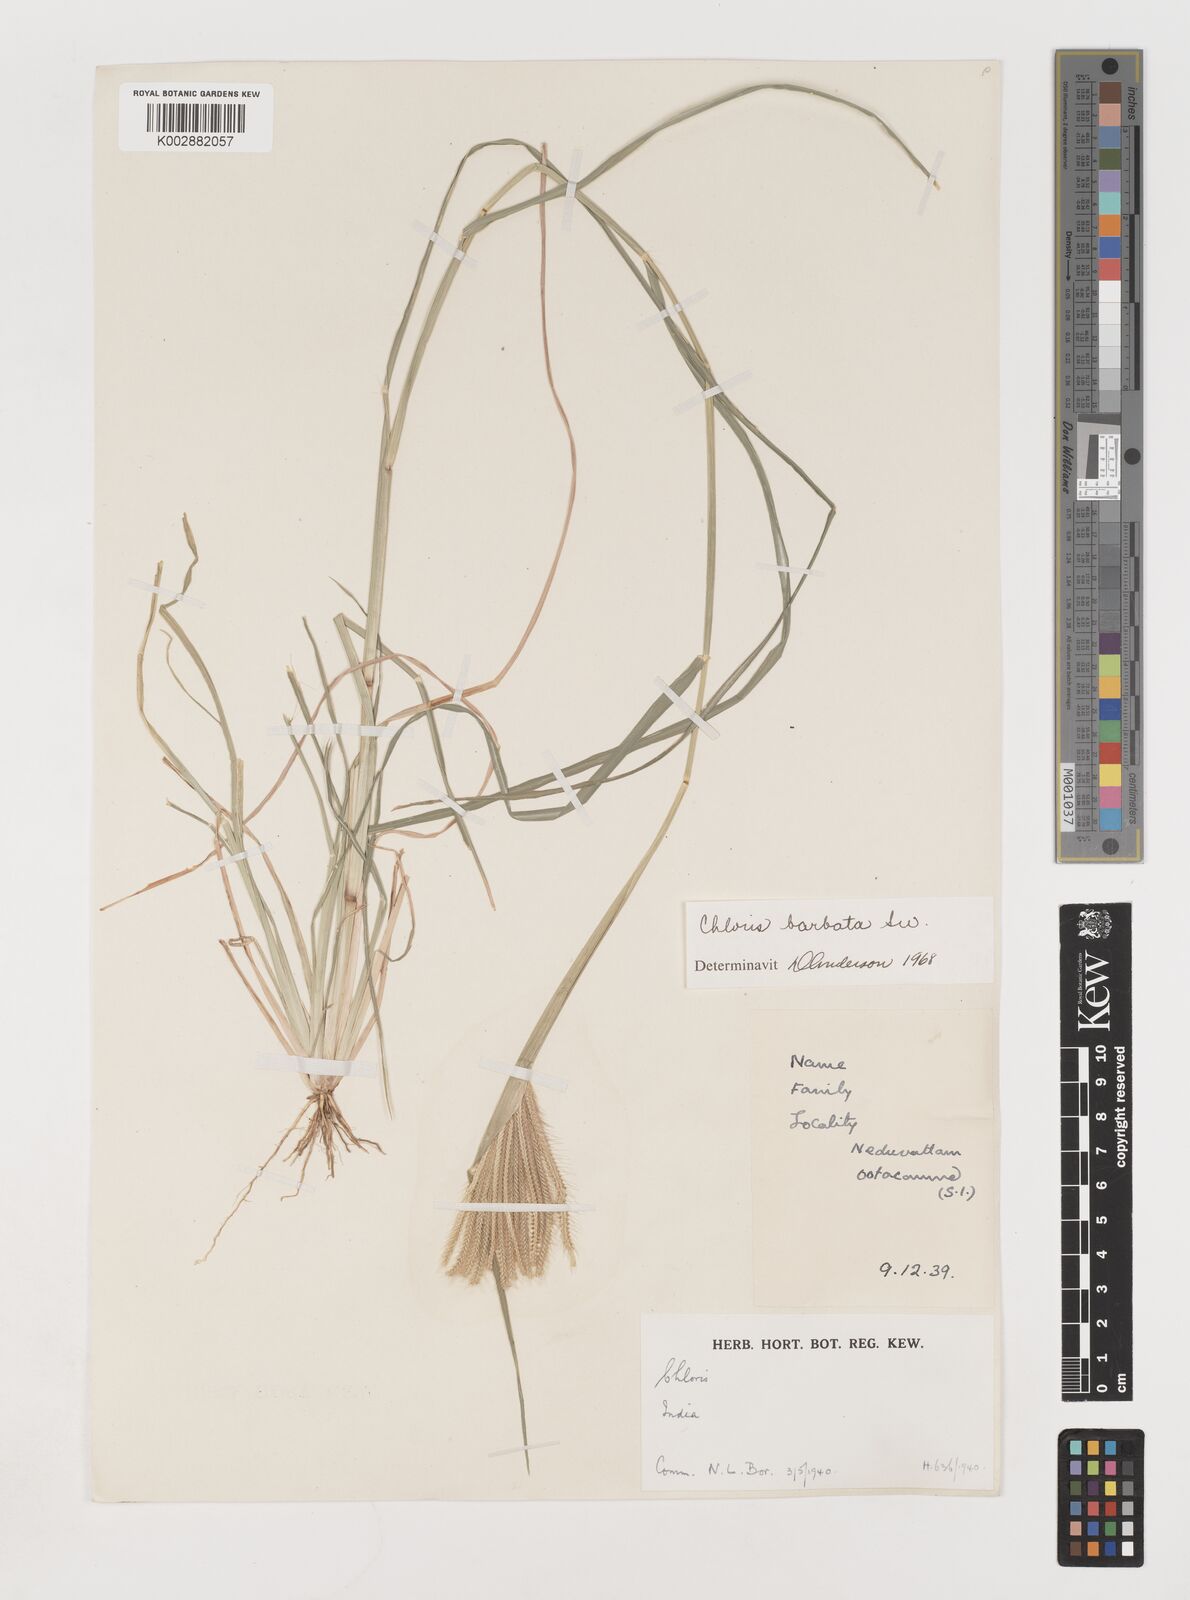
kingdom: Plantae
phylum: Tracheophyta
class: Liliopsida
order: Poales
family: Poaceae
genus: Chloris
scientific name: Chloris barbata
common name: Swollen fingergrass
